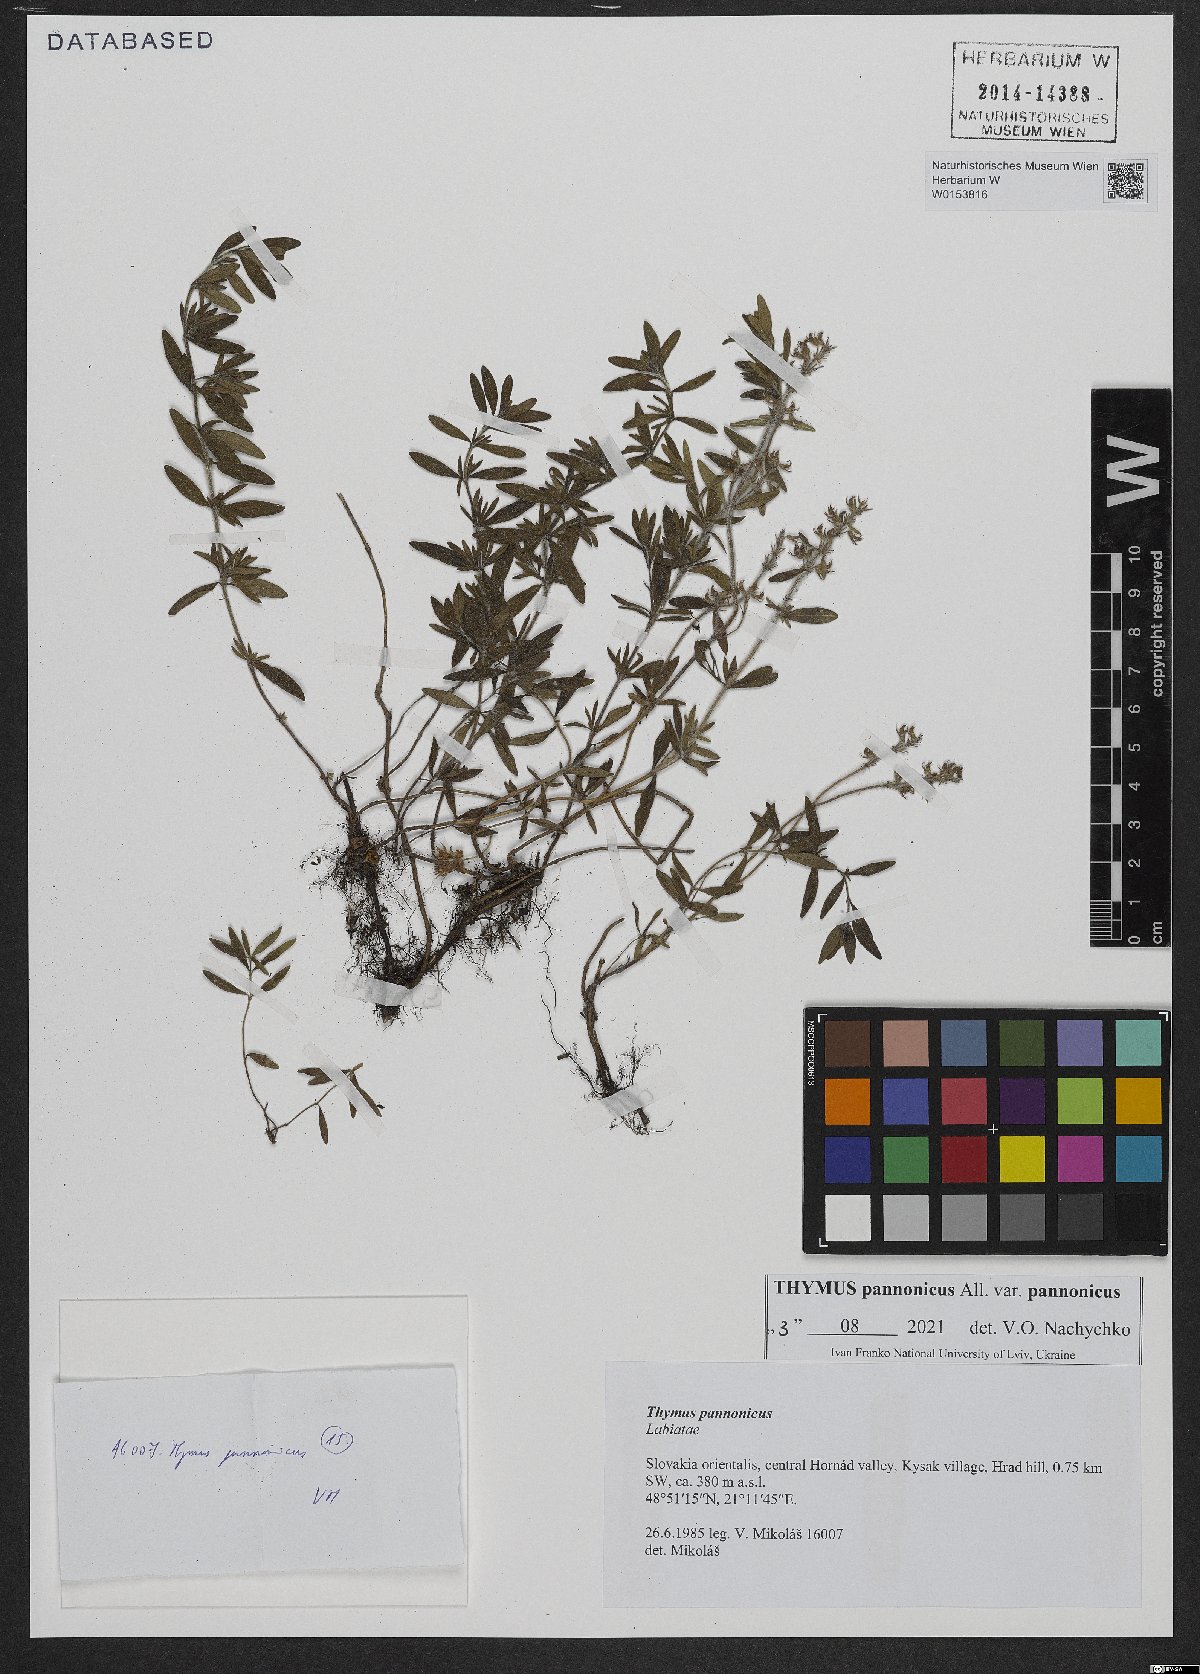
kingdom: Plantae
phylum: Tracheophyta
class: Magnoliopsida
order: Lamiales
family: Lamiaceae
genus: Thymus
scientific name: Thymus pannonicus
